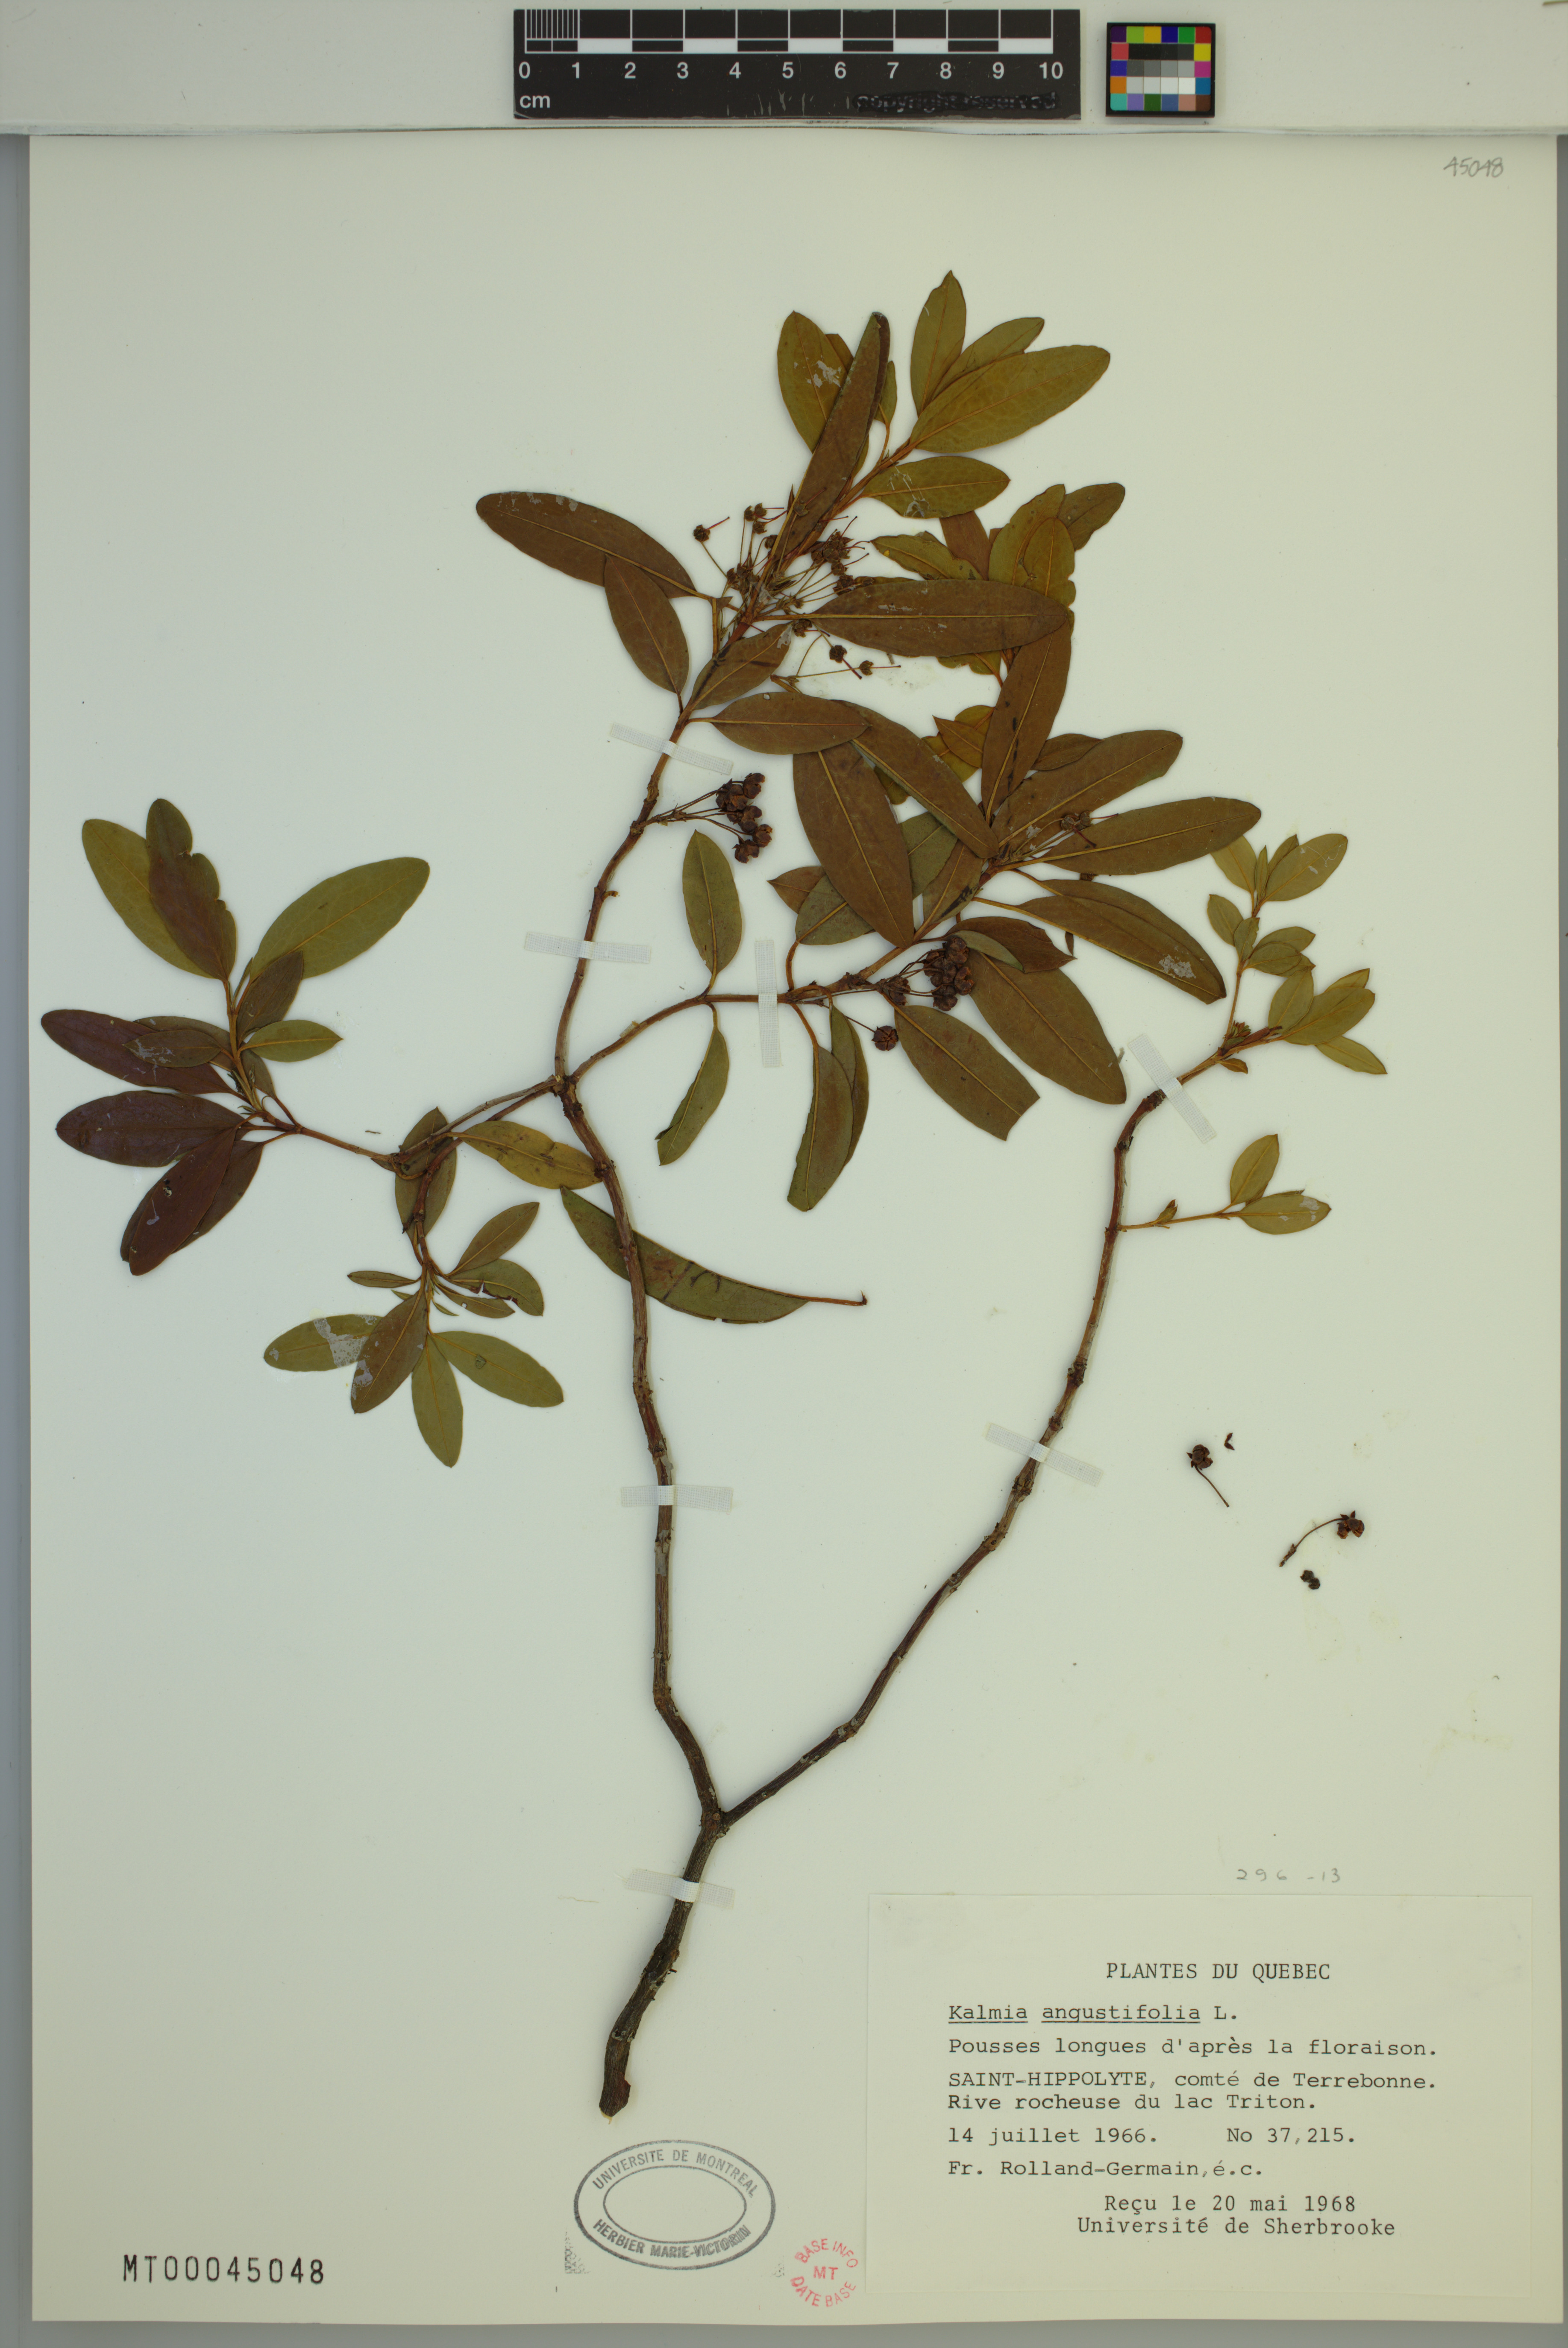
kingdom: Plantae
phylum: Tracheophyta
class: Magnoliopsida
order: Ericales
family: Ericaceae
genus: Kalmia
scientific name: Kalmia angustifolia
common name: Sheep-laurel
